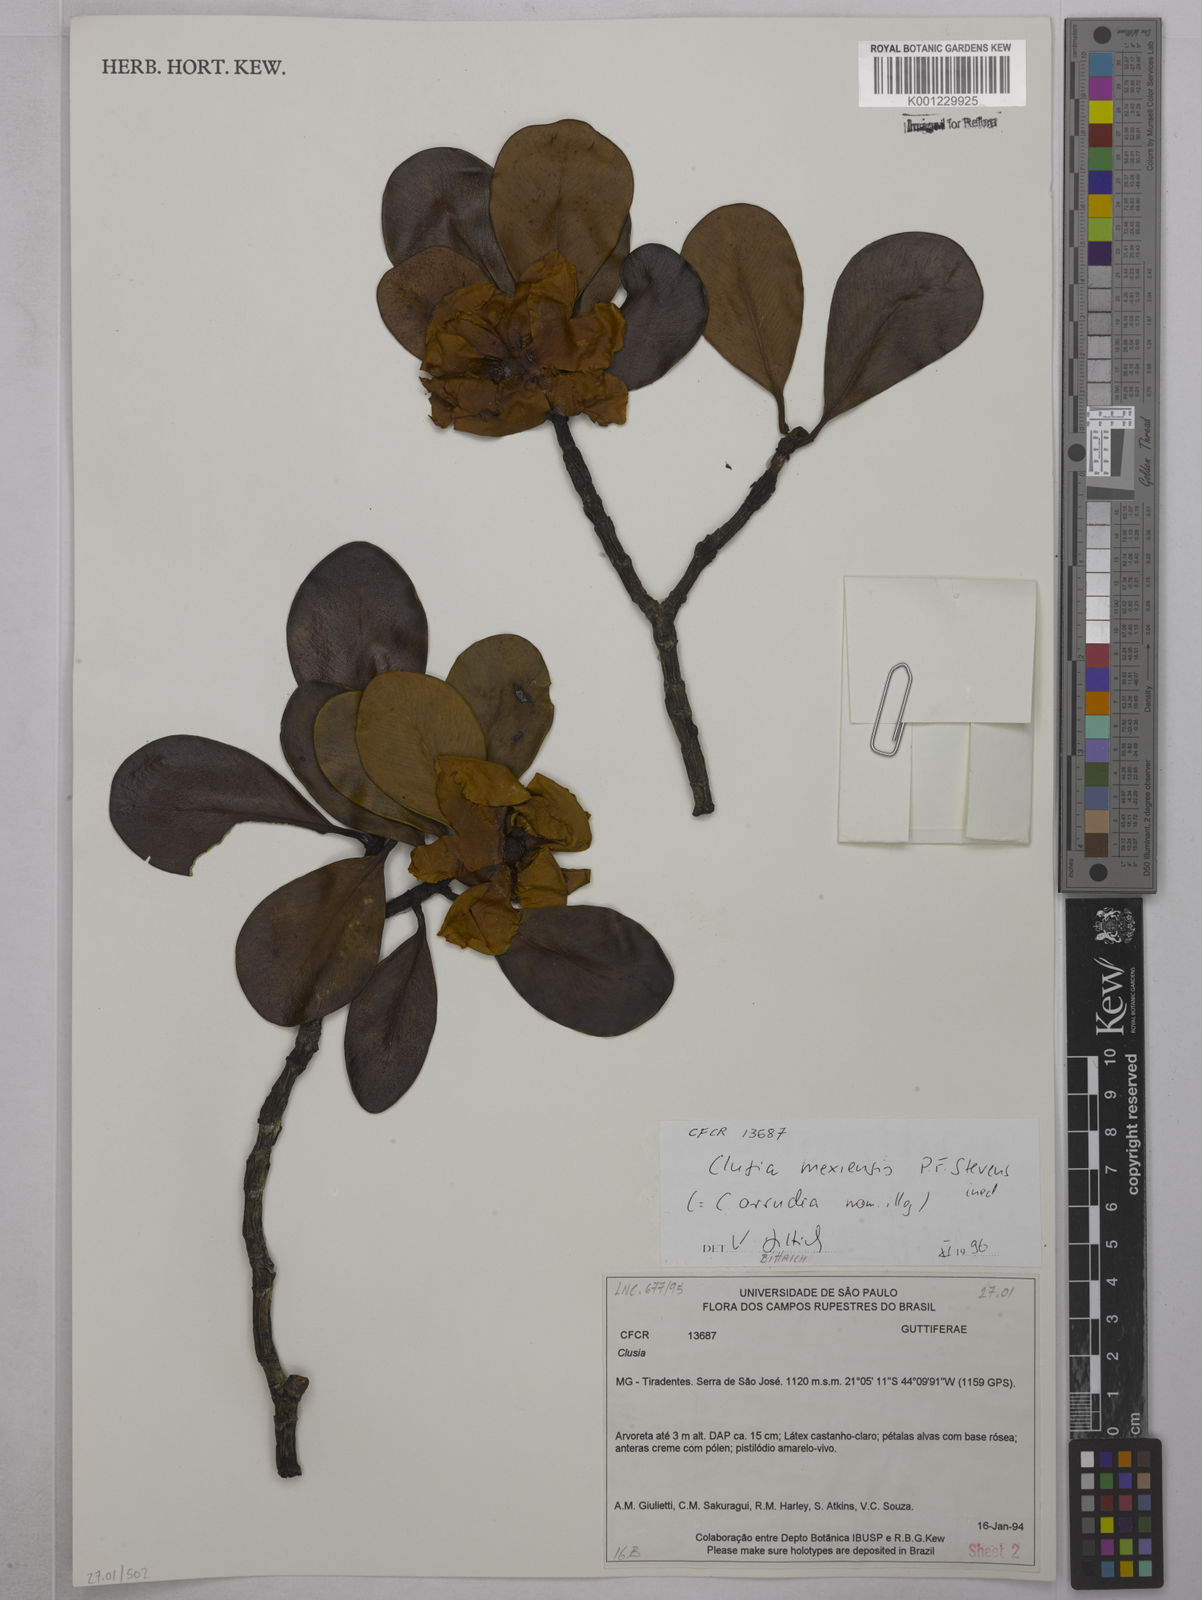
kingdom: Plantae
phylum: Tracheophyta
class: Magnoliopsida
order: Malpighiales
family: Clusiaceae
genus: Clusia
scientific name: Clusia
